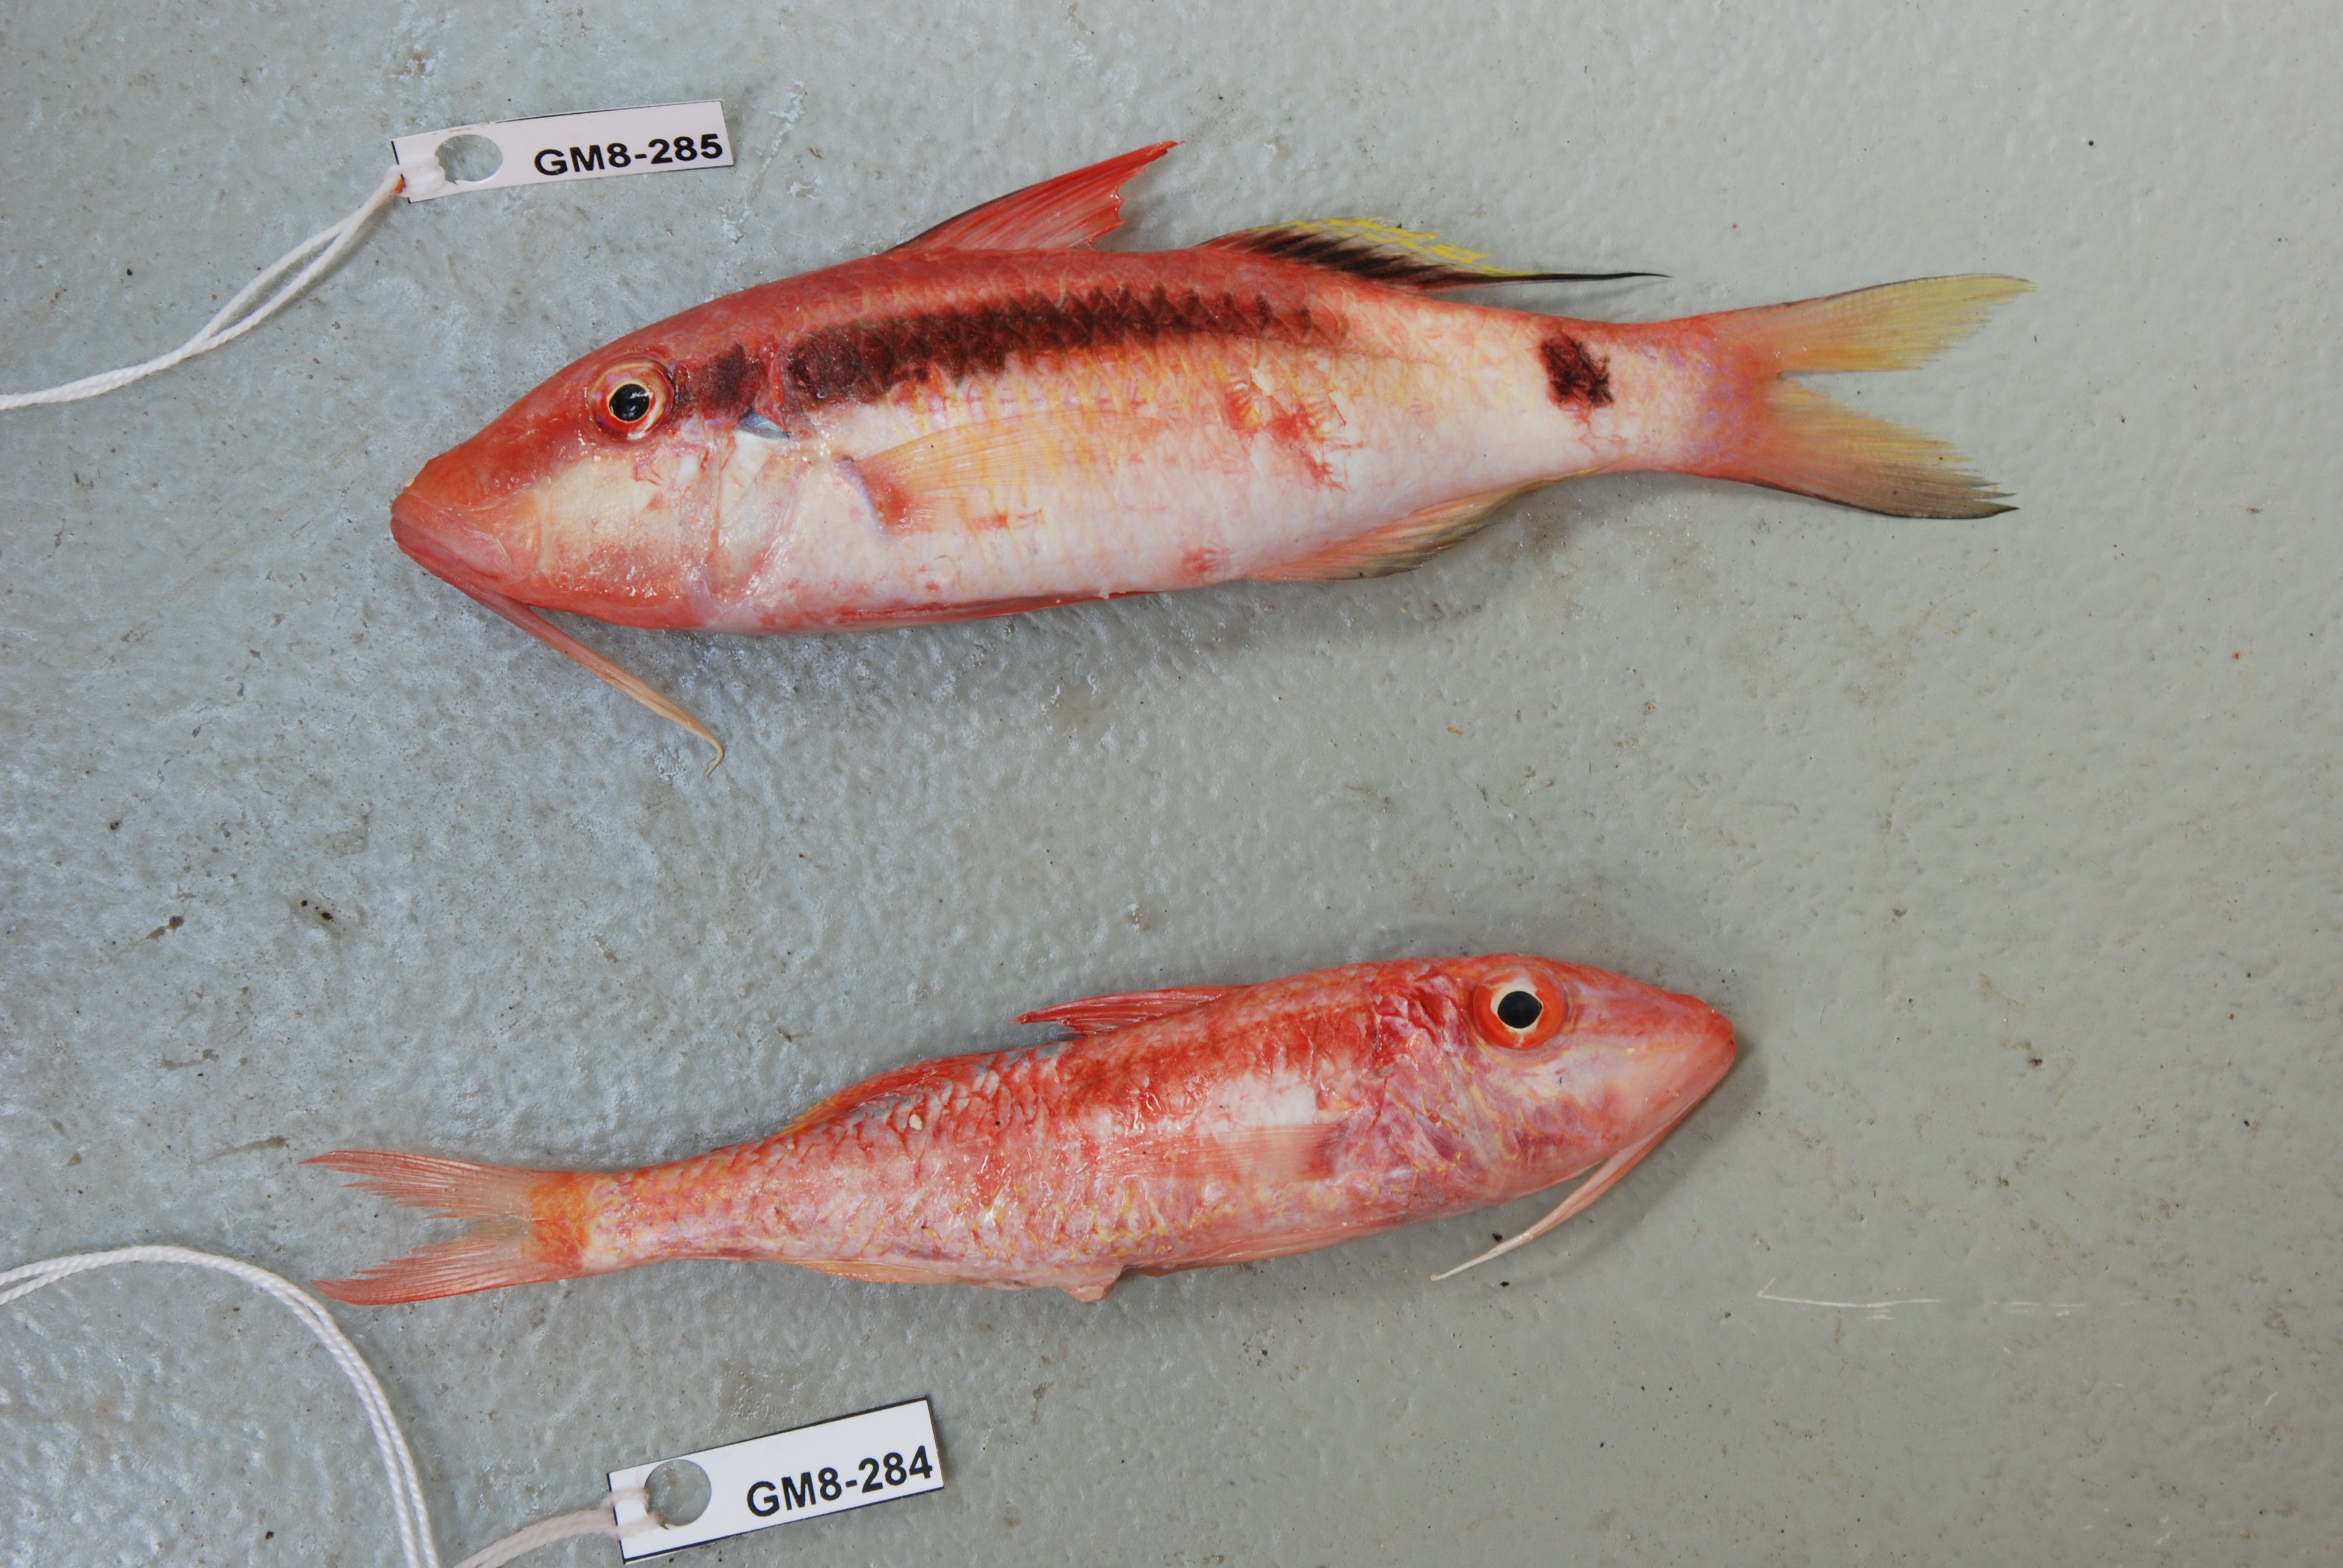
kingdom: Animalia
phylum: Chordata
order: Perciformes
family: Mullidae
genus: Parupeneus
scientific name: Parupeneus macronemus
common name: Long-barbel goatfish
